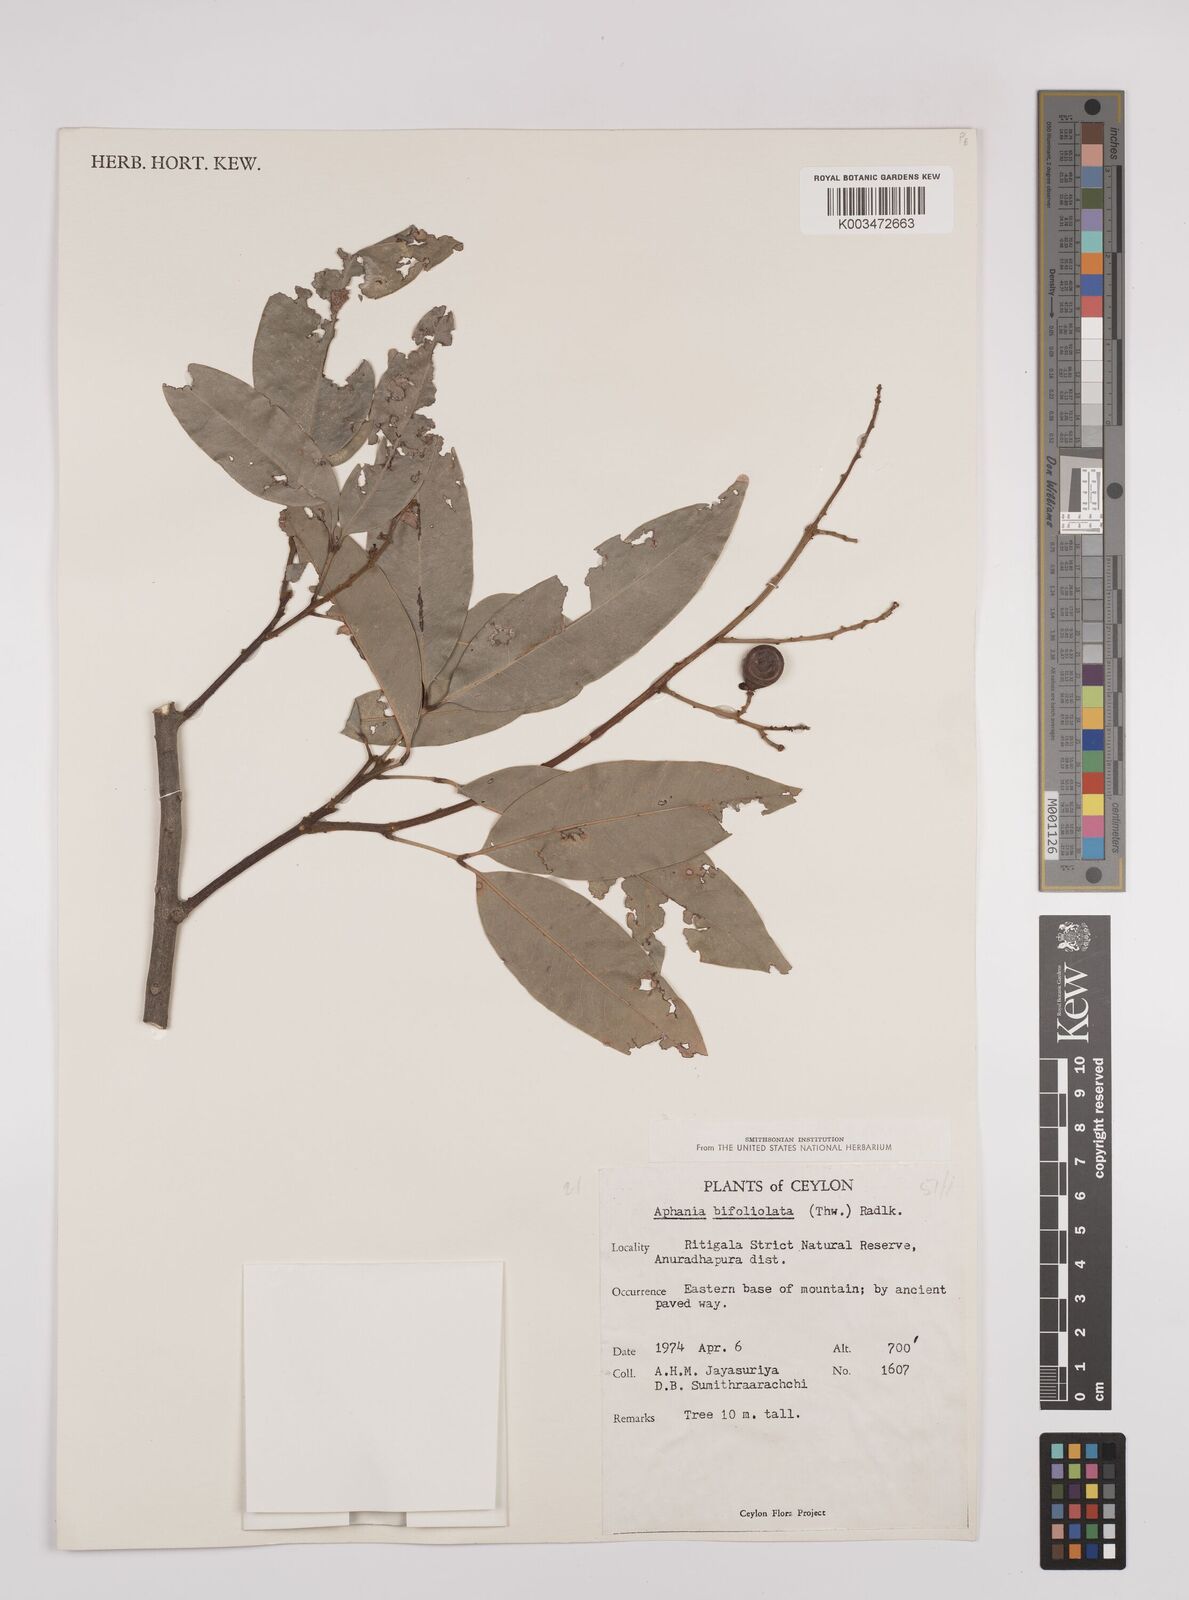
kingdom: Plantae
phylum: Tracheophyta
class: Magnoliopsida
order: Sapindales
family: Sapindaceae
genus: Lepisanthes
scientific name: Lepisanthes senegalensis
